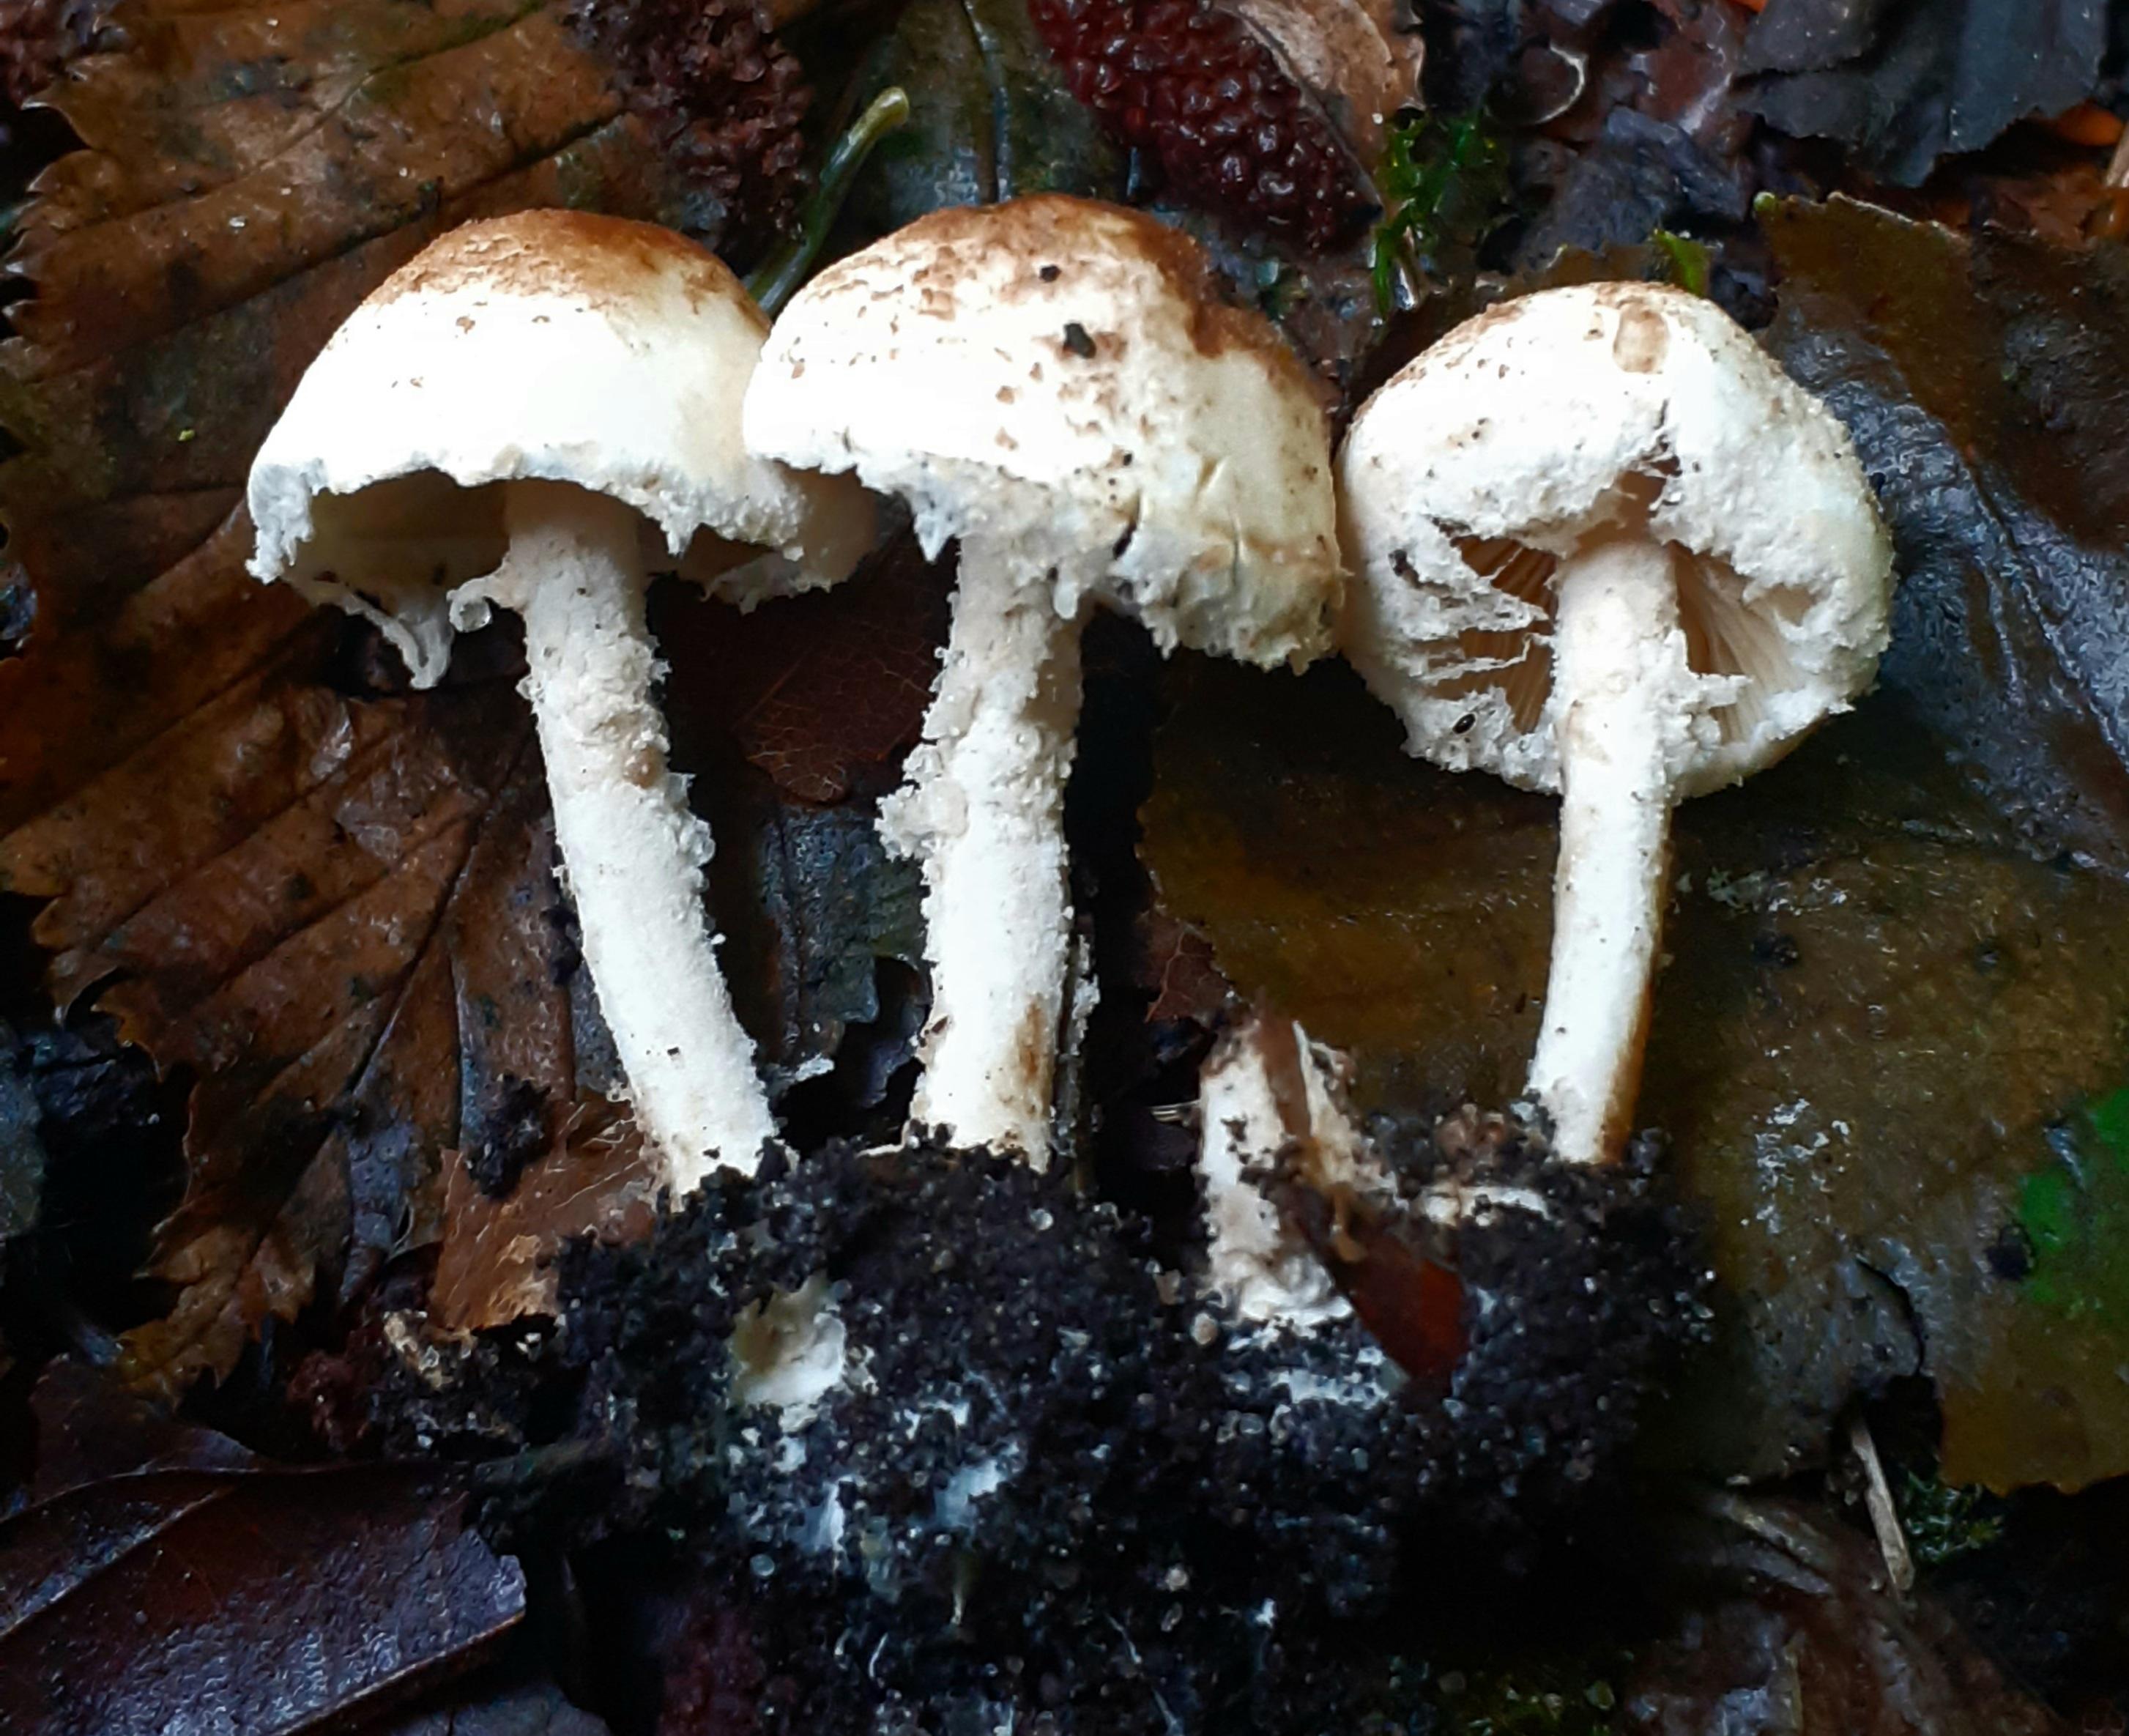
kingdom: Fungi
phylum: Basidiomycota
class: Agaricomycetes
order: Agaricales
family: Agaricaceae
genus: Cystolepiota
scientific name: Cystolepiota hetieri
